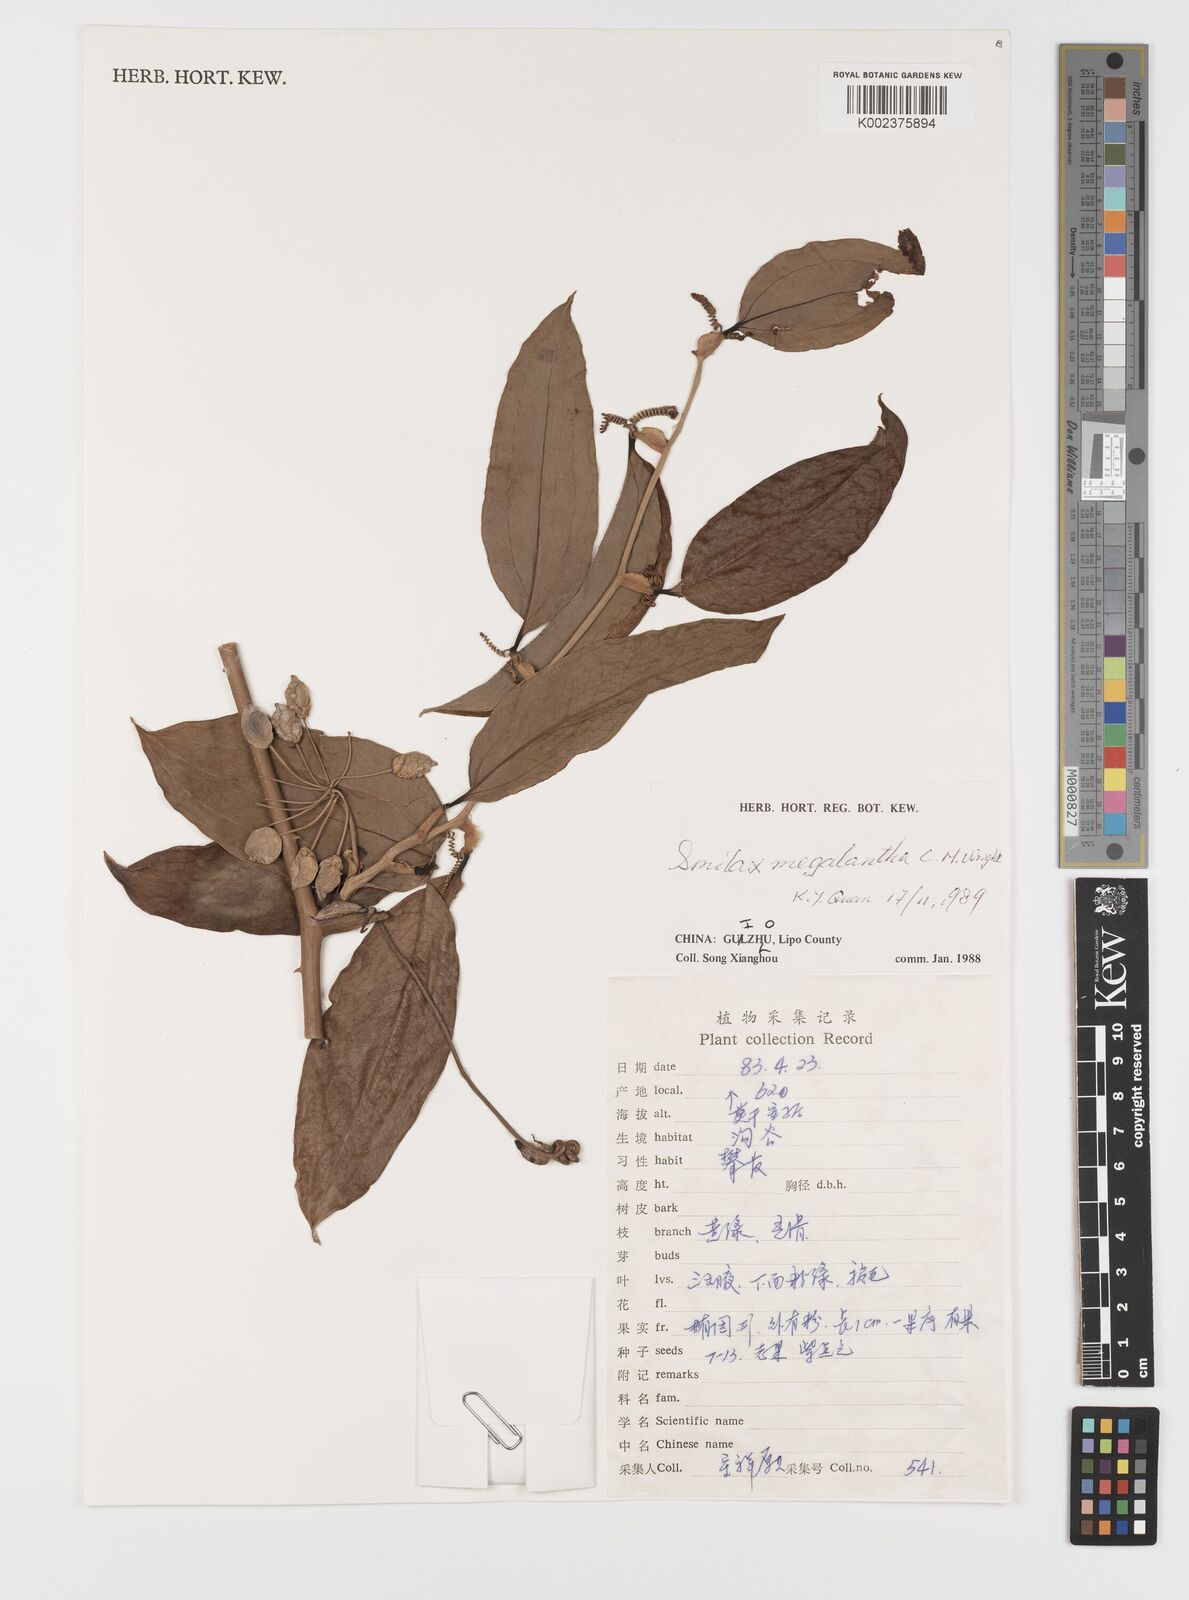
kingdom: Plantae
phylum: Tracheophyta
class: Liliopsida
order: Liliales
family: Smilacaceae
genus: Smilax
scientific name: Smilax megalantha
